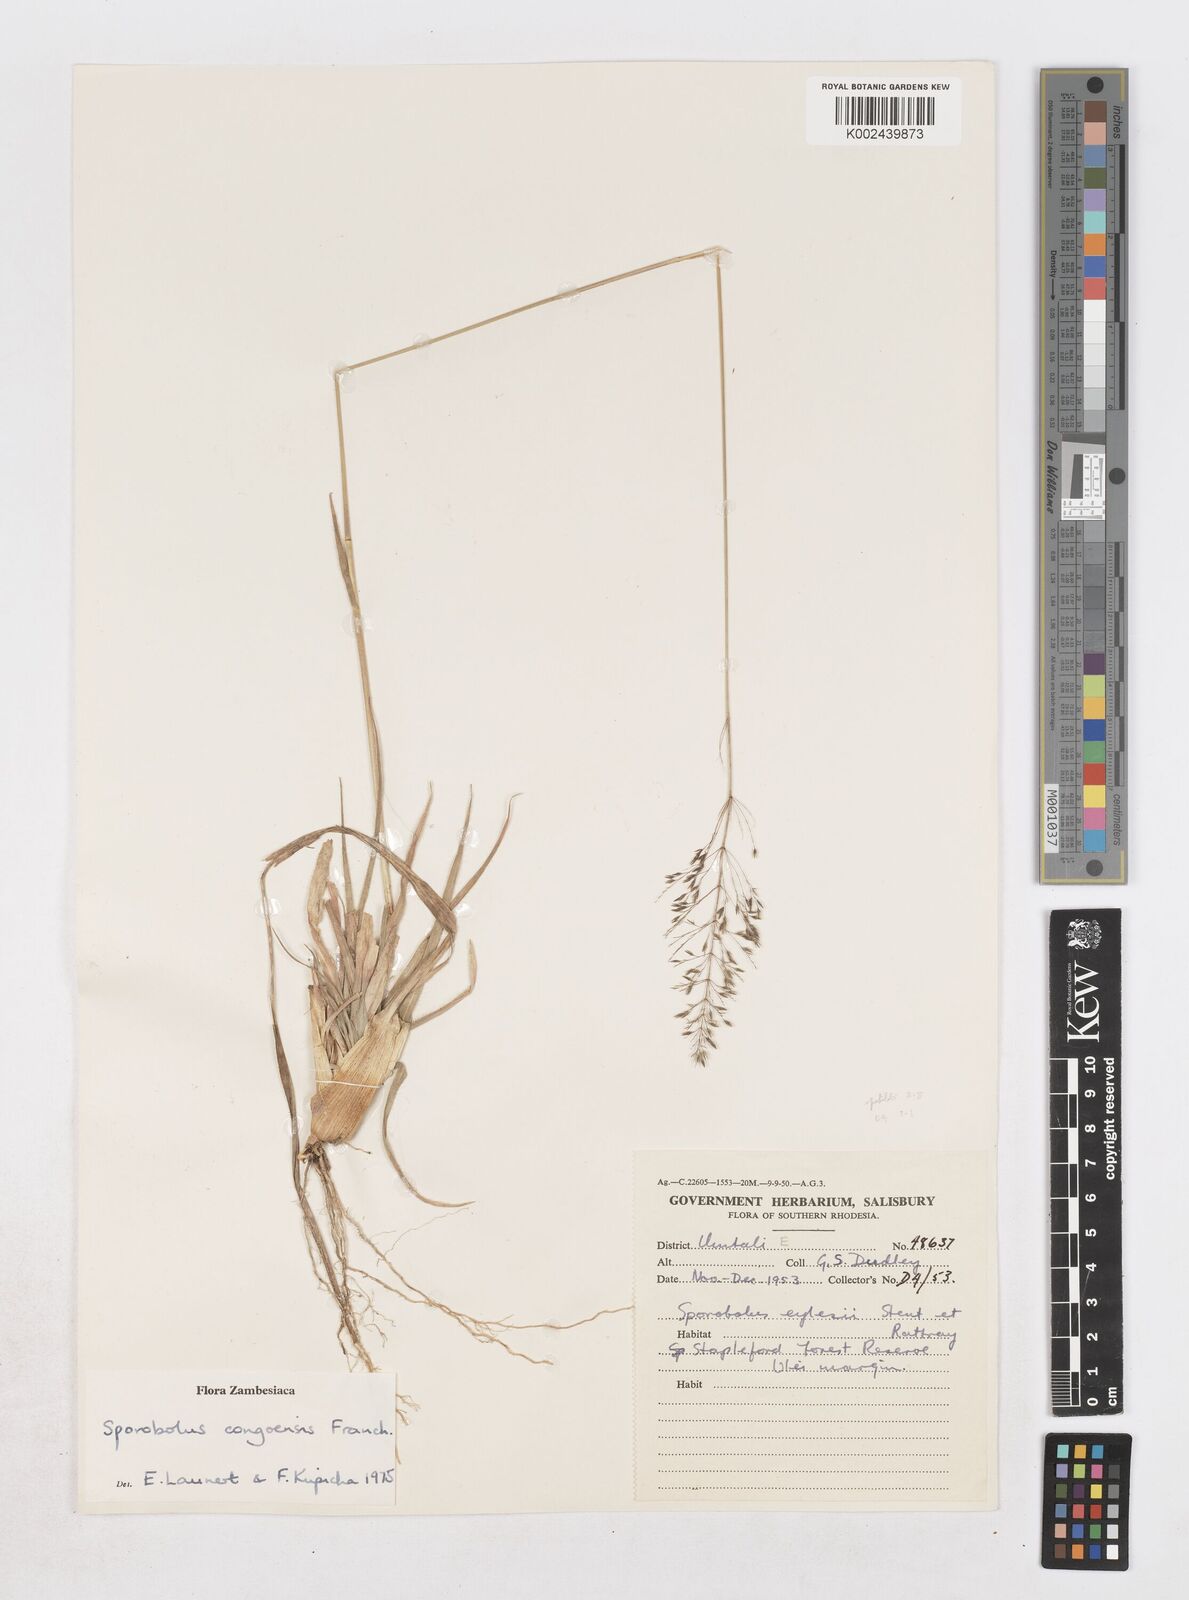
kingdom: Plantae
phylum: Tracheophyta
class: Liliopsida
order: Poales
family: Poaceae
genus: Sporobolus
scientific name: Sporobolus congoensis
